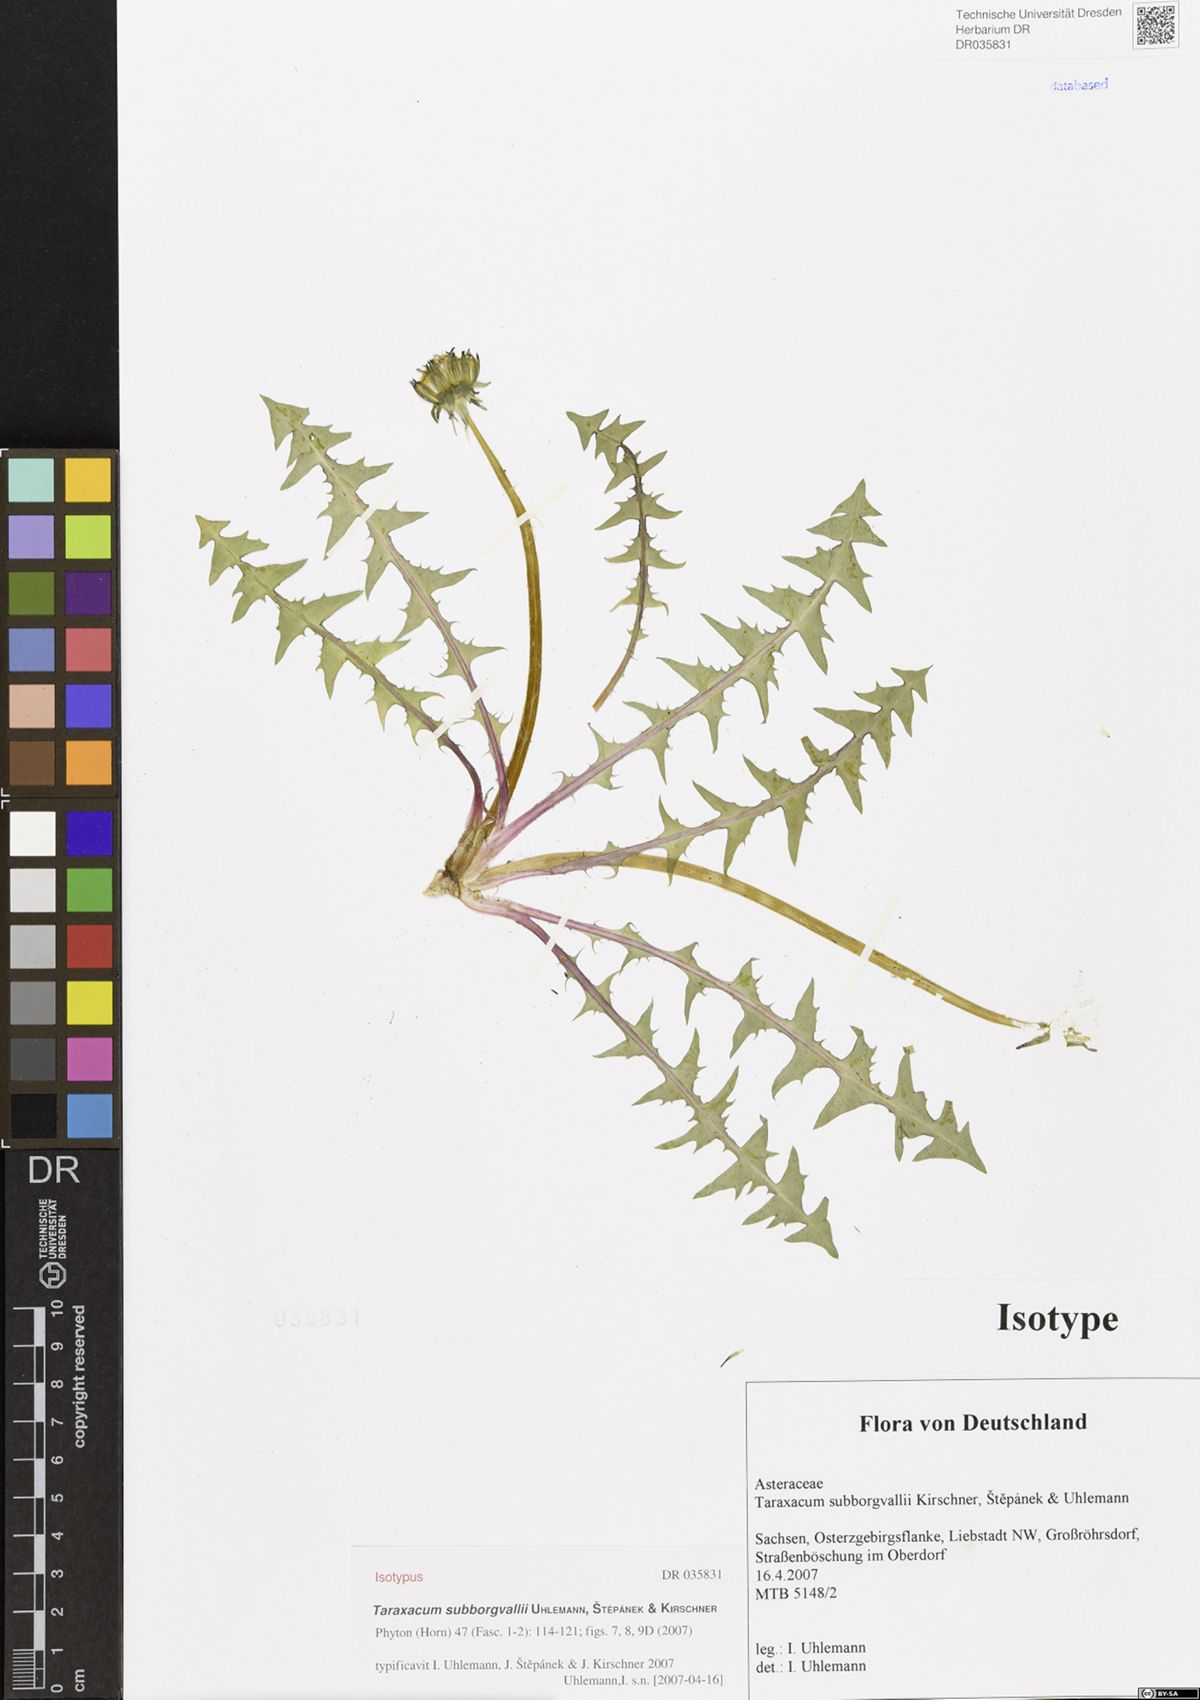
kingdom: Plantae
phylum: Tracheophyta
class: Magnoliopsida
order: Asterales
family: Asteraceae
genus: Taraxacum
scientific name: Taraxacum subborgvallii
